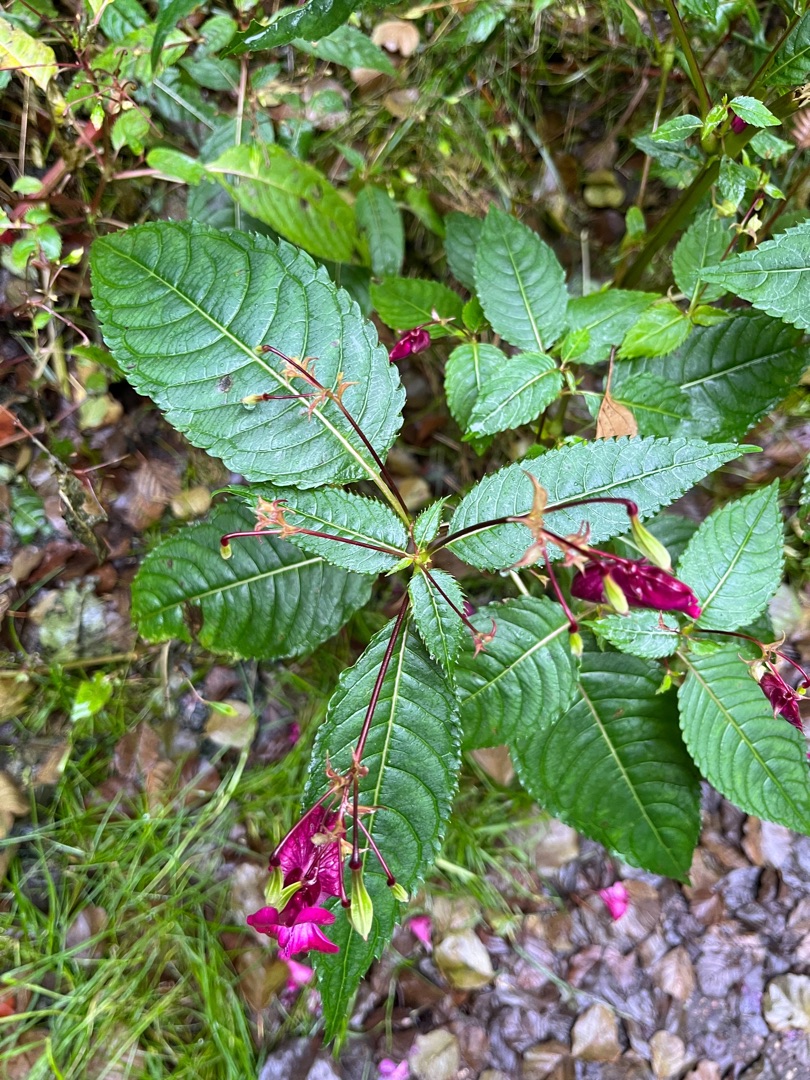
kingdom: Plantae
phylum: Tracheophyta
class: Magnoliopsida
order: Ericales
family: Balsaminaceae
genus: Impatiens
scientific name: Impatiens glandulifera
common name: Kæmpe-balsamin
